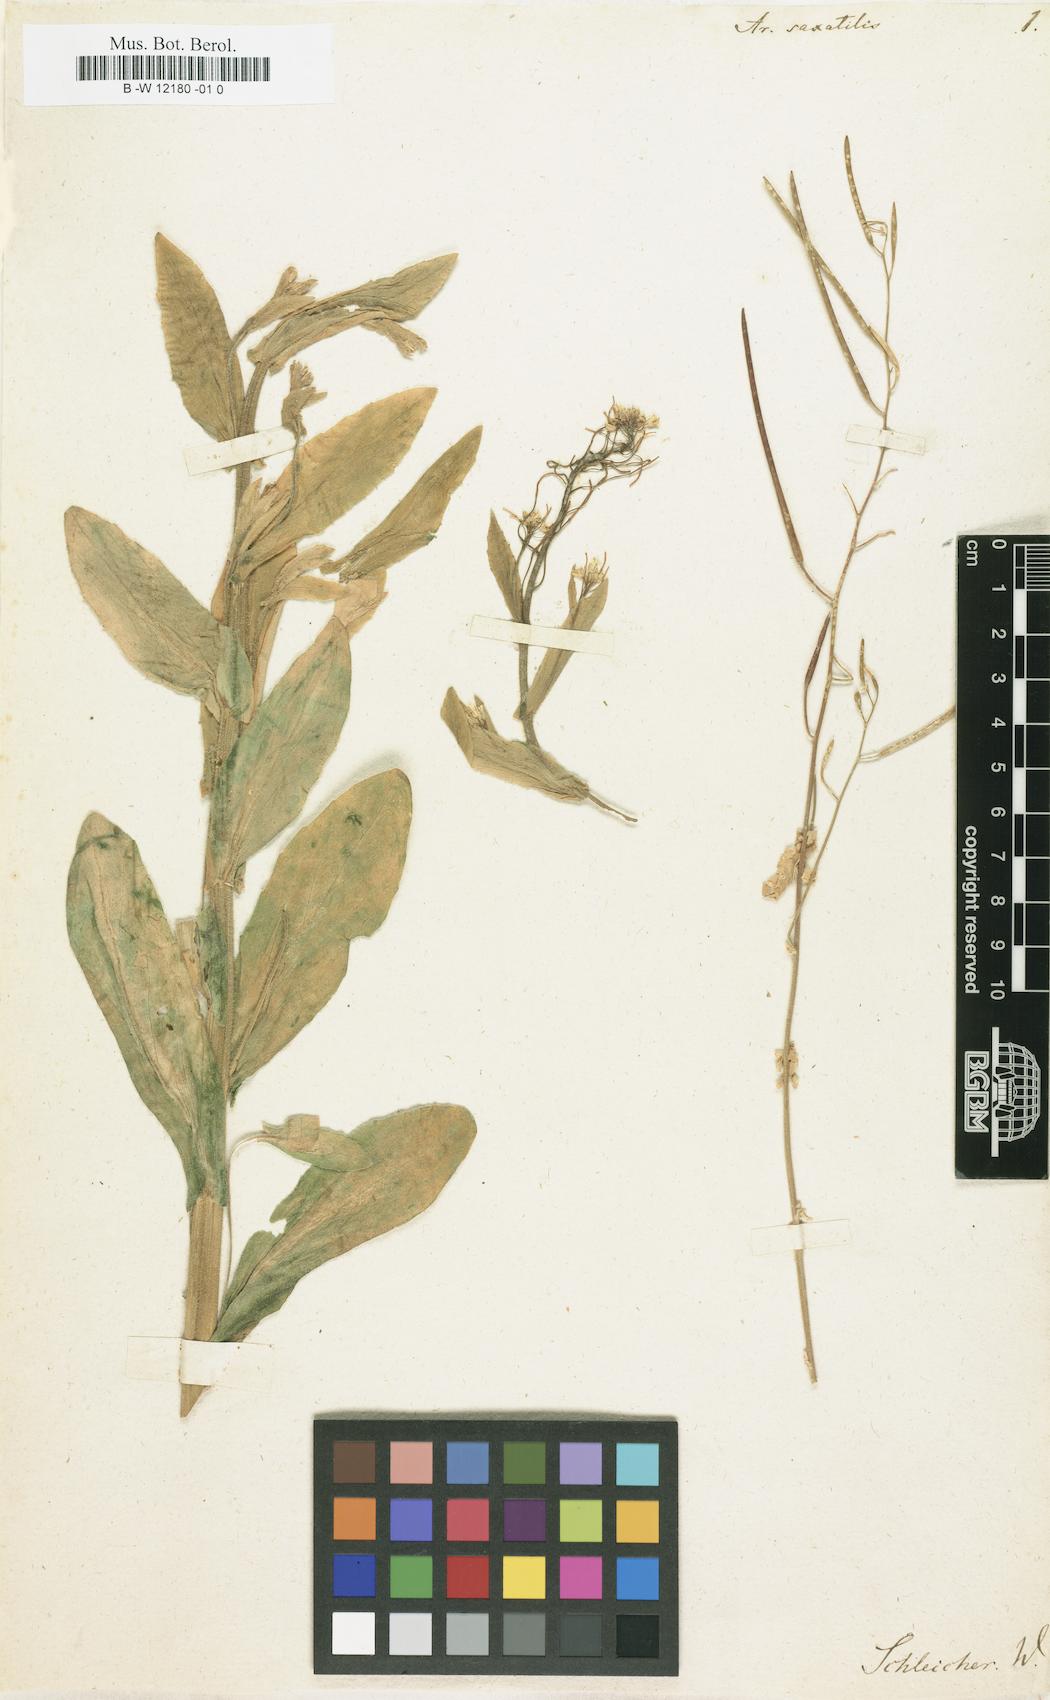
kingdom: Plantae
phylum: Tracheophyta
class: Magnoliopsida
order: Brassicales
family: Brassicaceae
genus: Arabis
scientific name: Arabis nova
